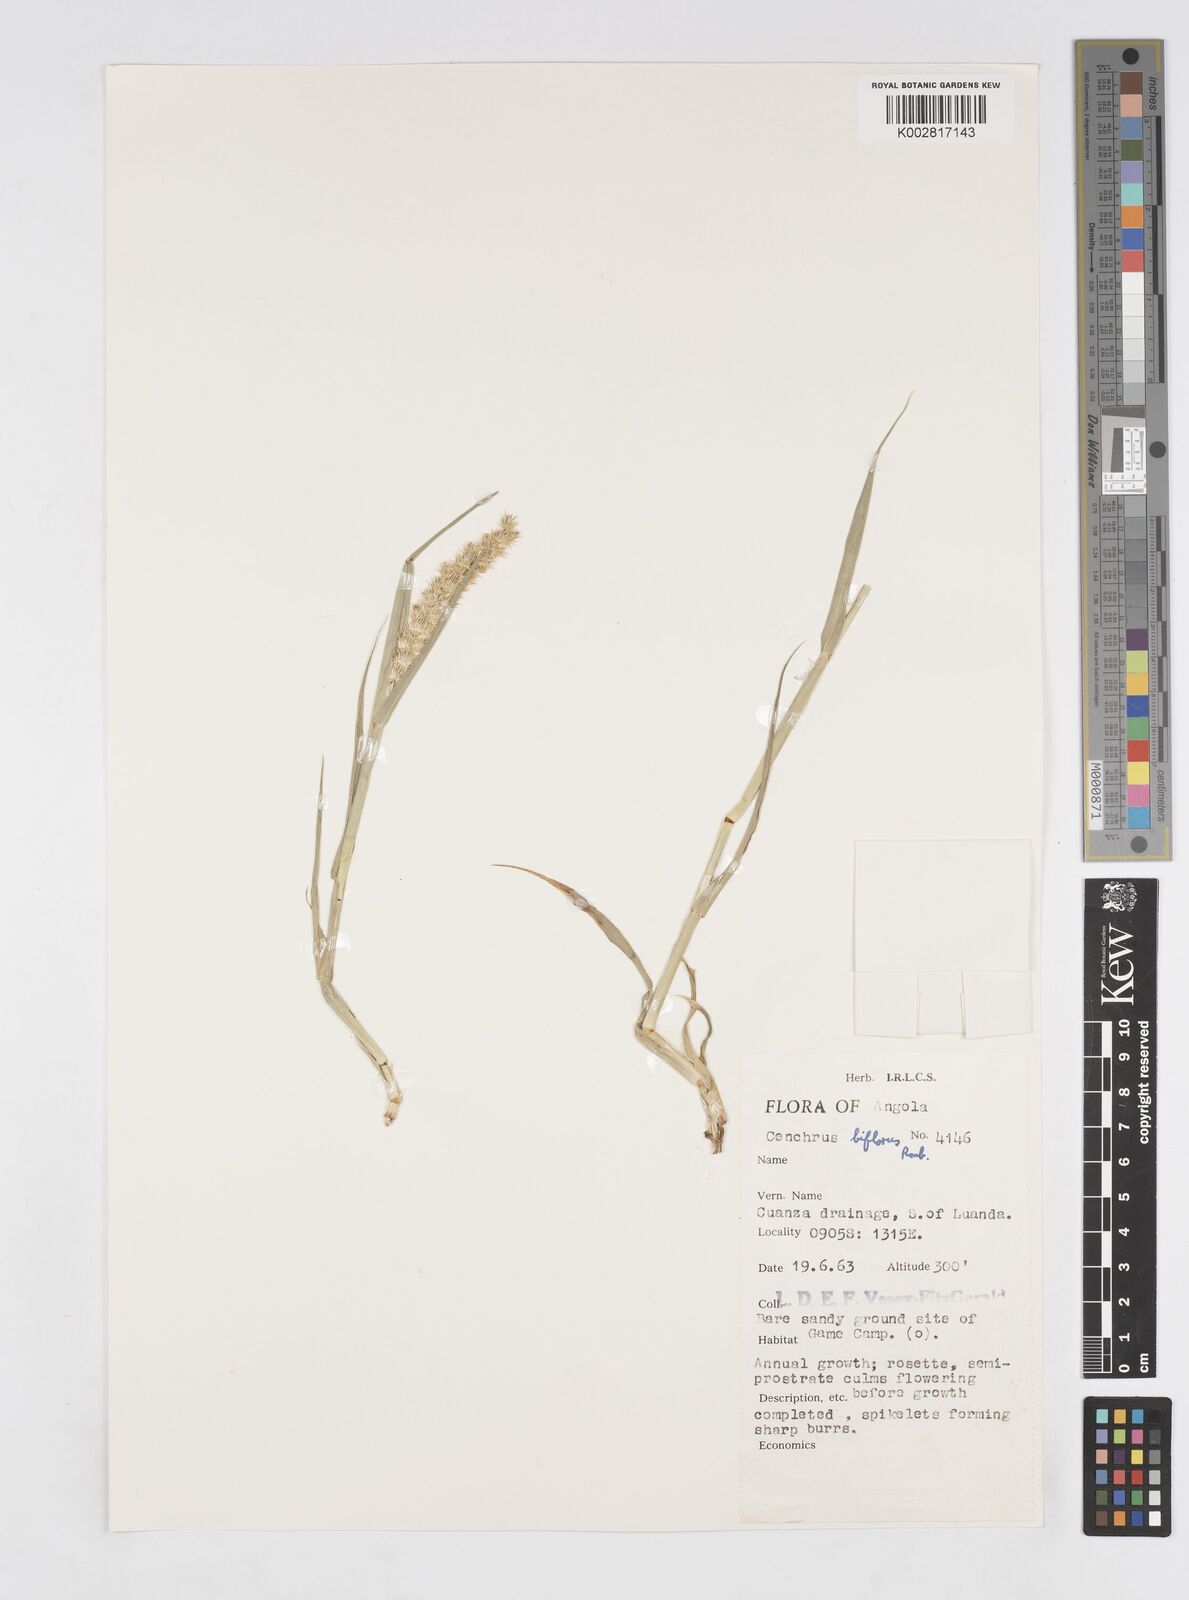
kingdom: Plantae
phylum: Tracheophyta
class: Liliopsida
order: Poales
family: Poaceae
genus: Cenchrus
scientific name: Cenchrus biflorus
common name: Indian sandbur
